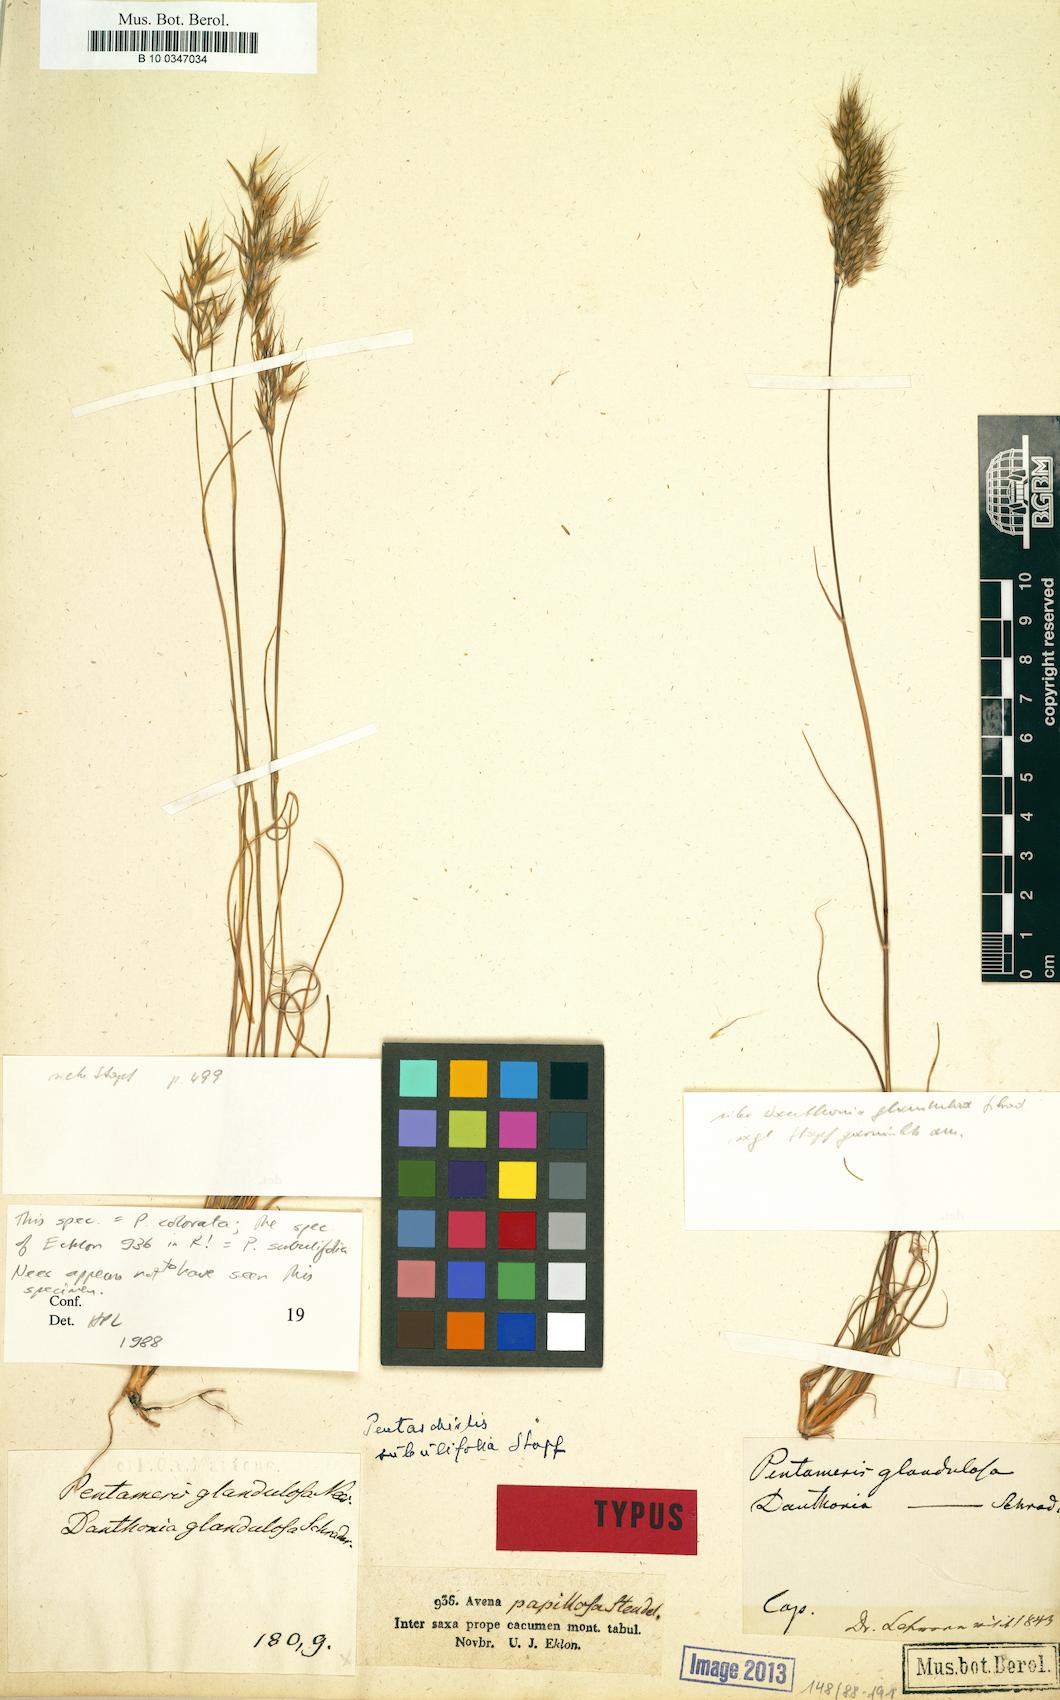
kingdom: Plantae
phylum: Tracheophyta
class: Liliopsida
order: Poales
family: Poaceae
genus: Pentameris
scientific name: Pentameris scabra
